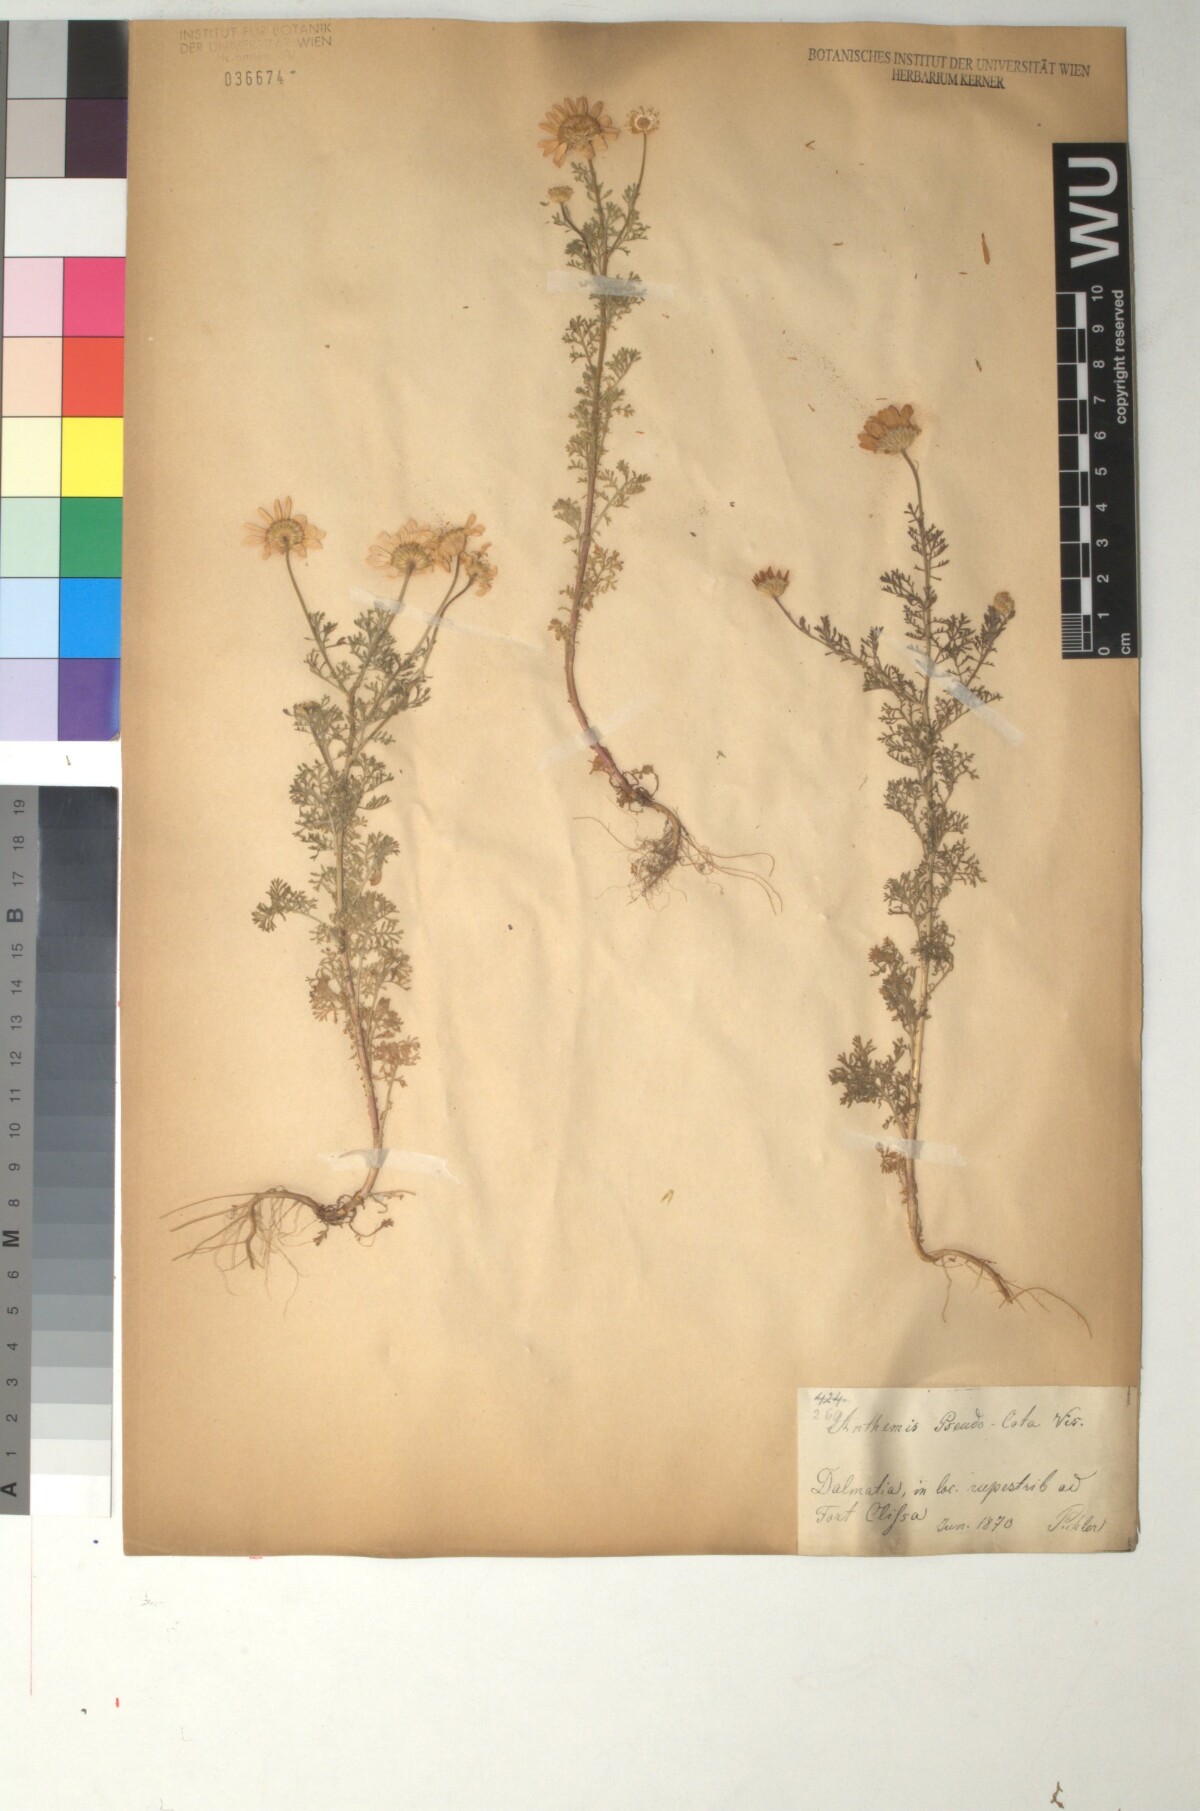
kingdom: Plantae
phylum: Tracheophyta
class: Magnoliopsida
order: Asterales
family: Asteraceae
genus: Cota
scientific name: Cota segetalis
